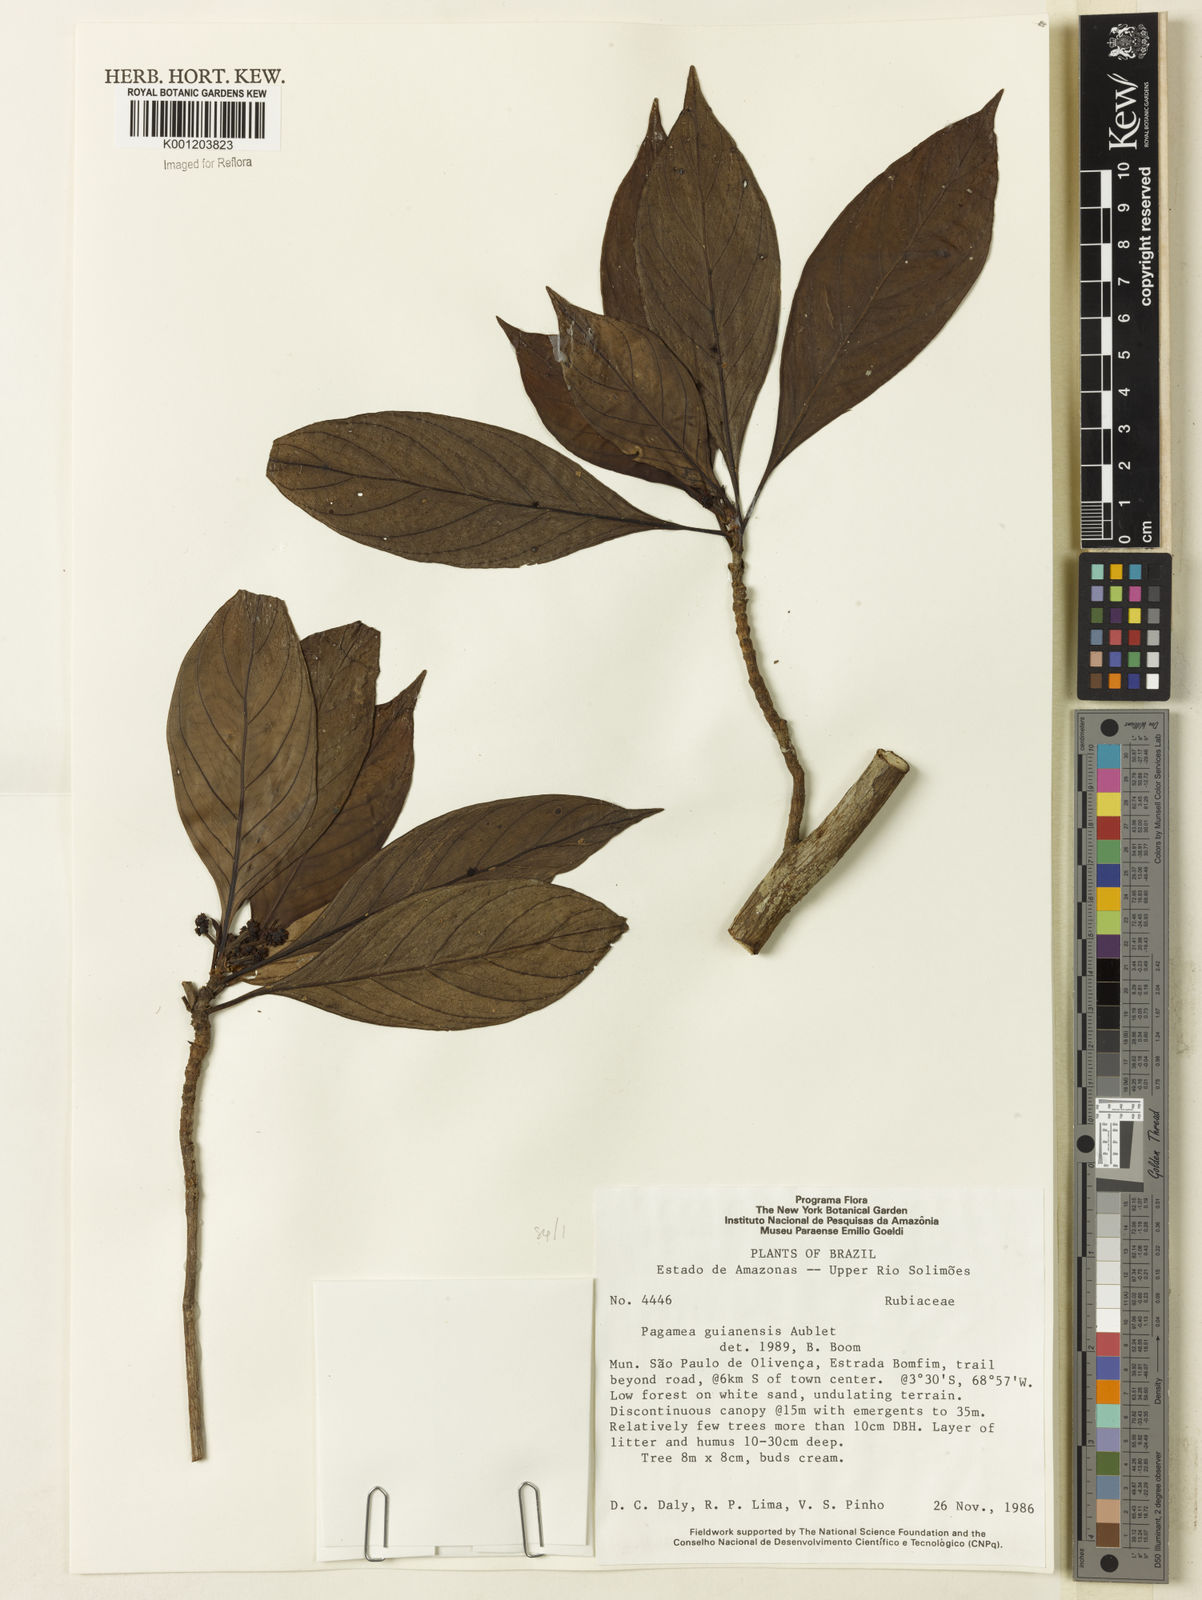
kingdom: Plantae
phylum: Tracheophyta
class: Magnoliopsida
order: Gentianales
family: Rubiaceae
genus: Pagamea
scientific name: Pagamea guianensis
